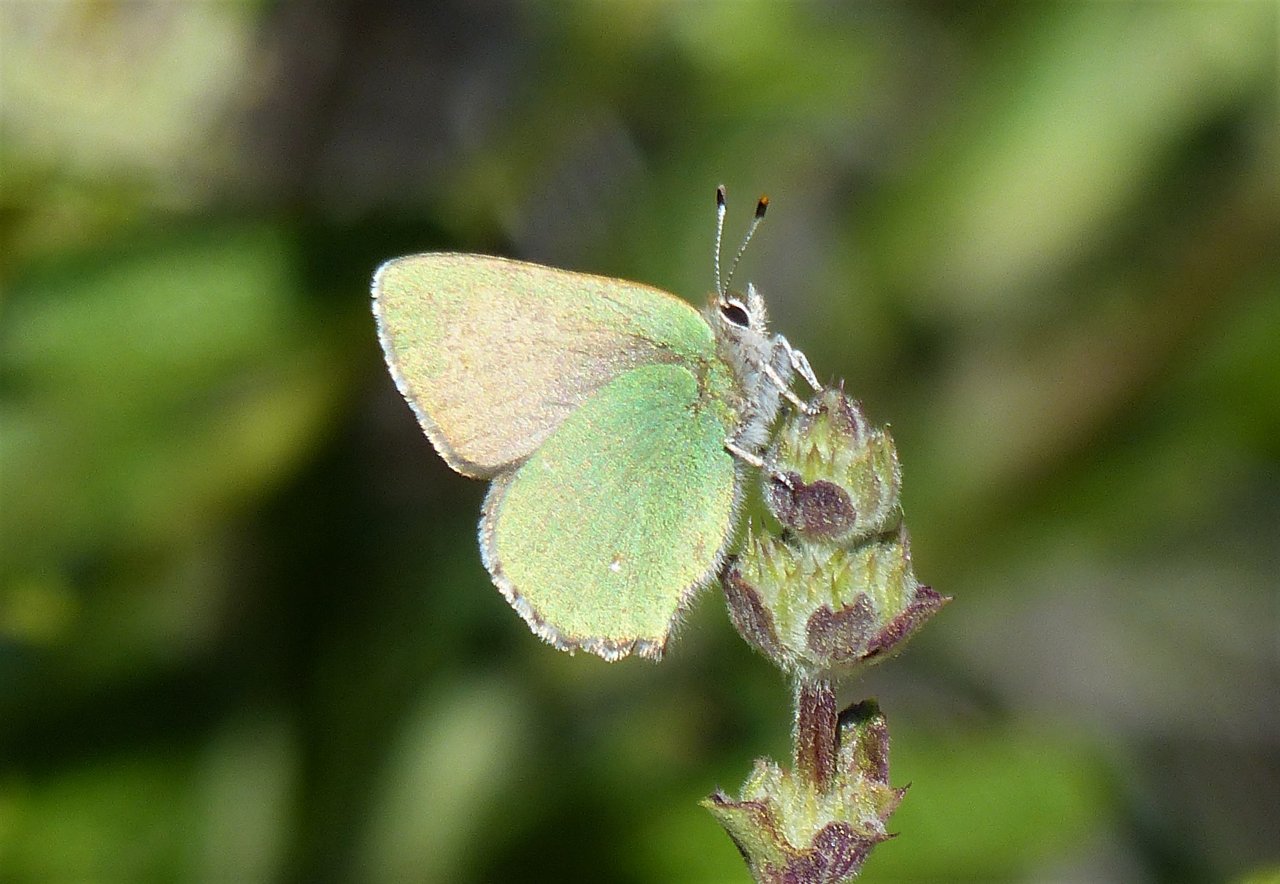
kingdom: Animalia
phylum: Arthropoda
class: Insecta
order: Lepidoptera
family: Lycaenidae
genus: Callophrys
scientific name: Callophrys dumetorum
